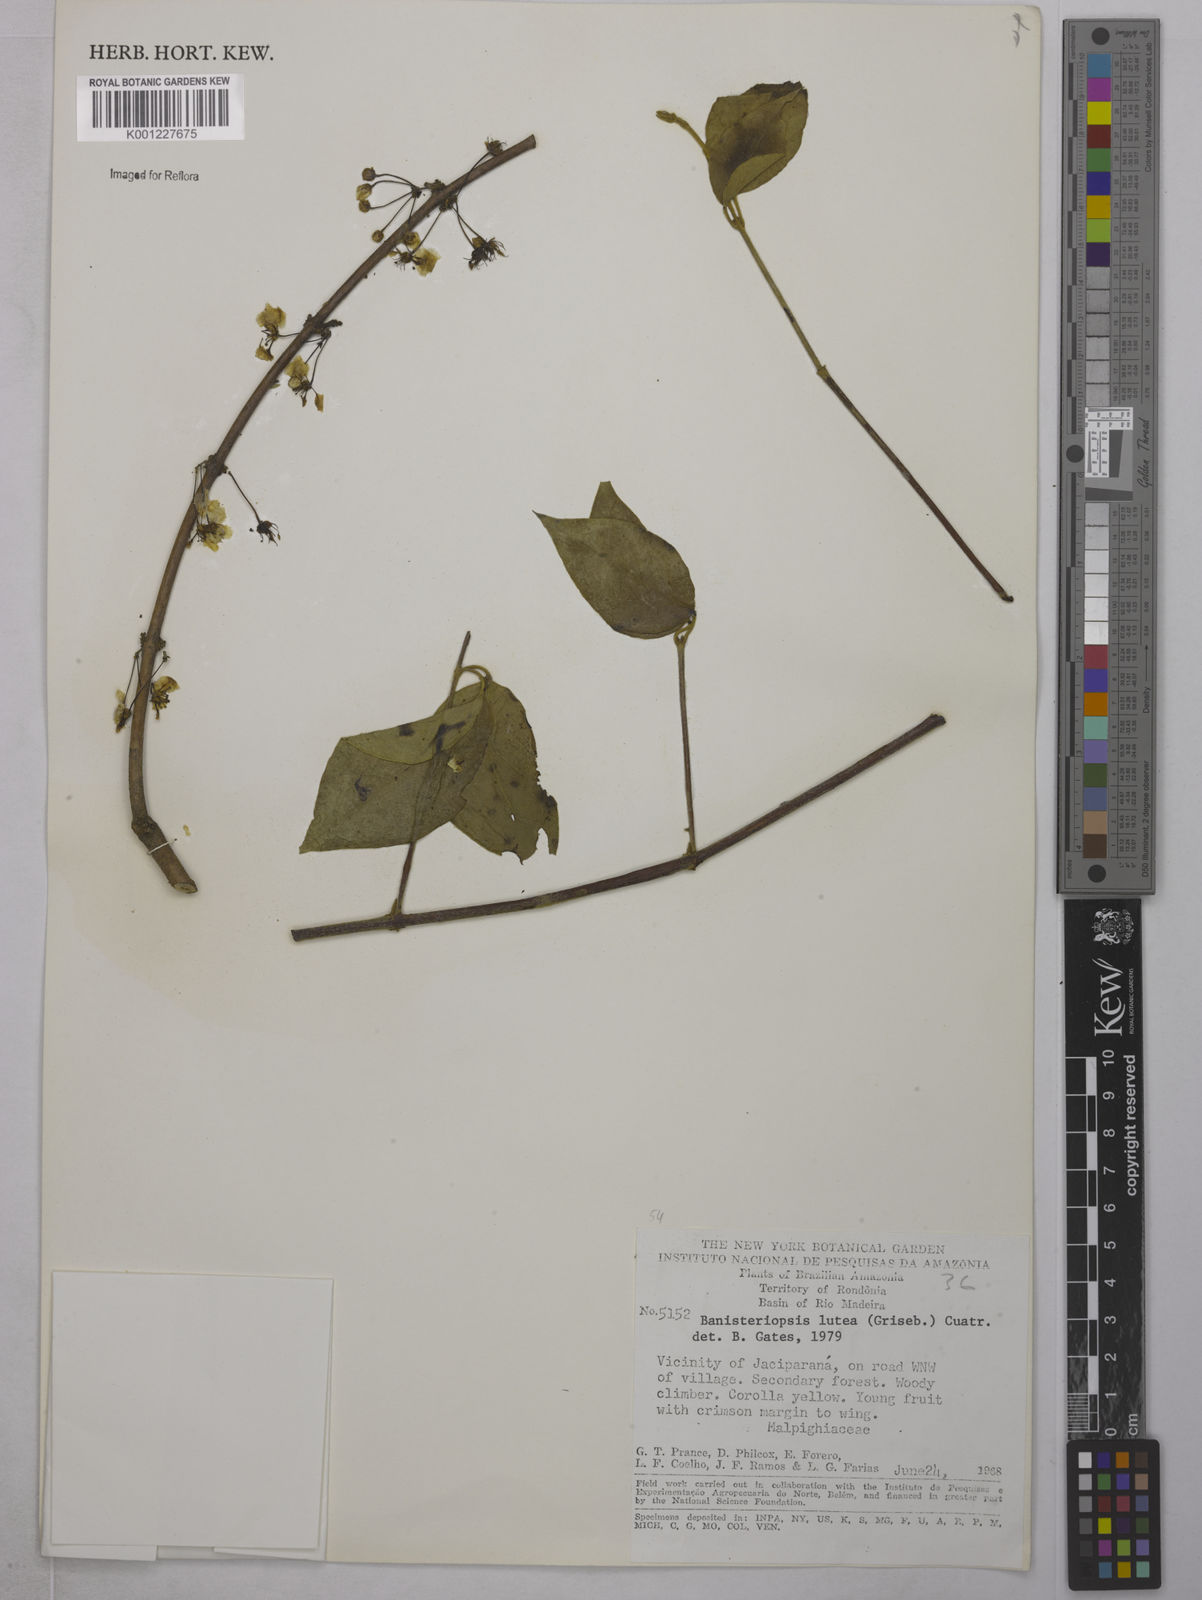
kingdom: Plantae
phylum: Tracheophyta
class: Magnoliopsida
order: Malpighiales
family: Malpighiaceae
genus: Diplopterys
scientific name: Diplopterys lutea
